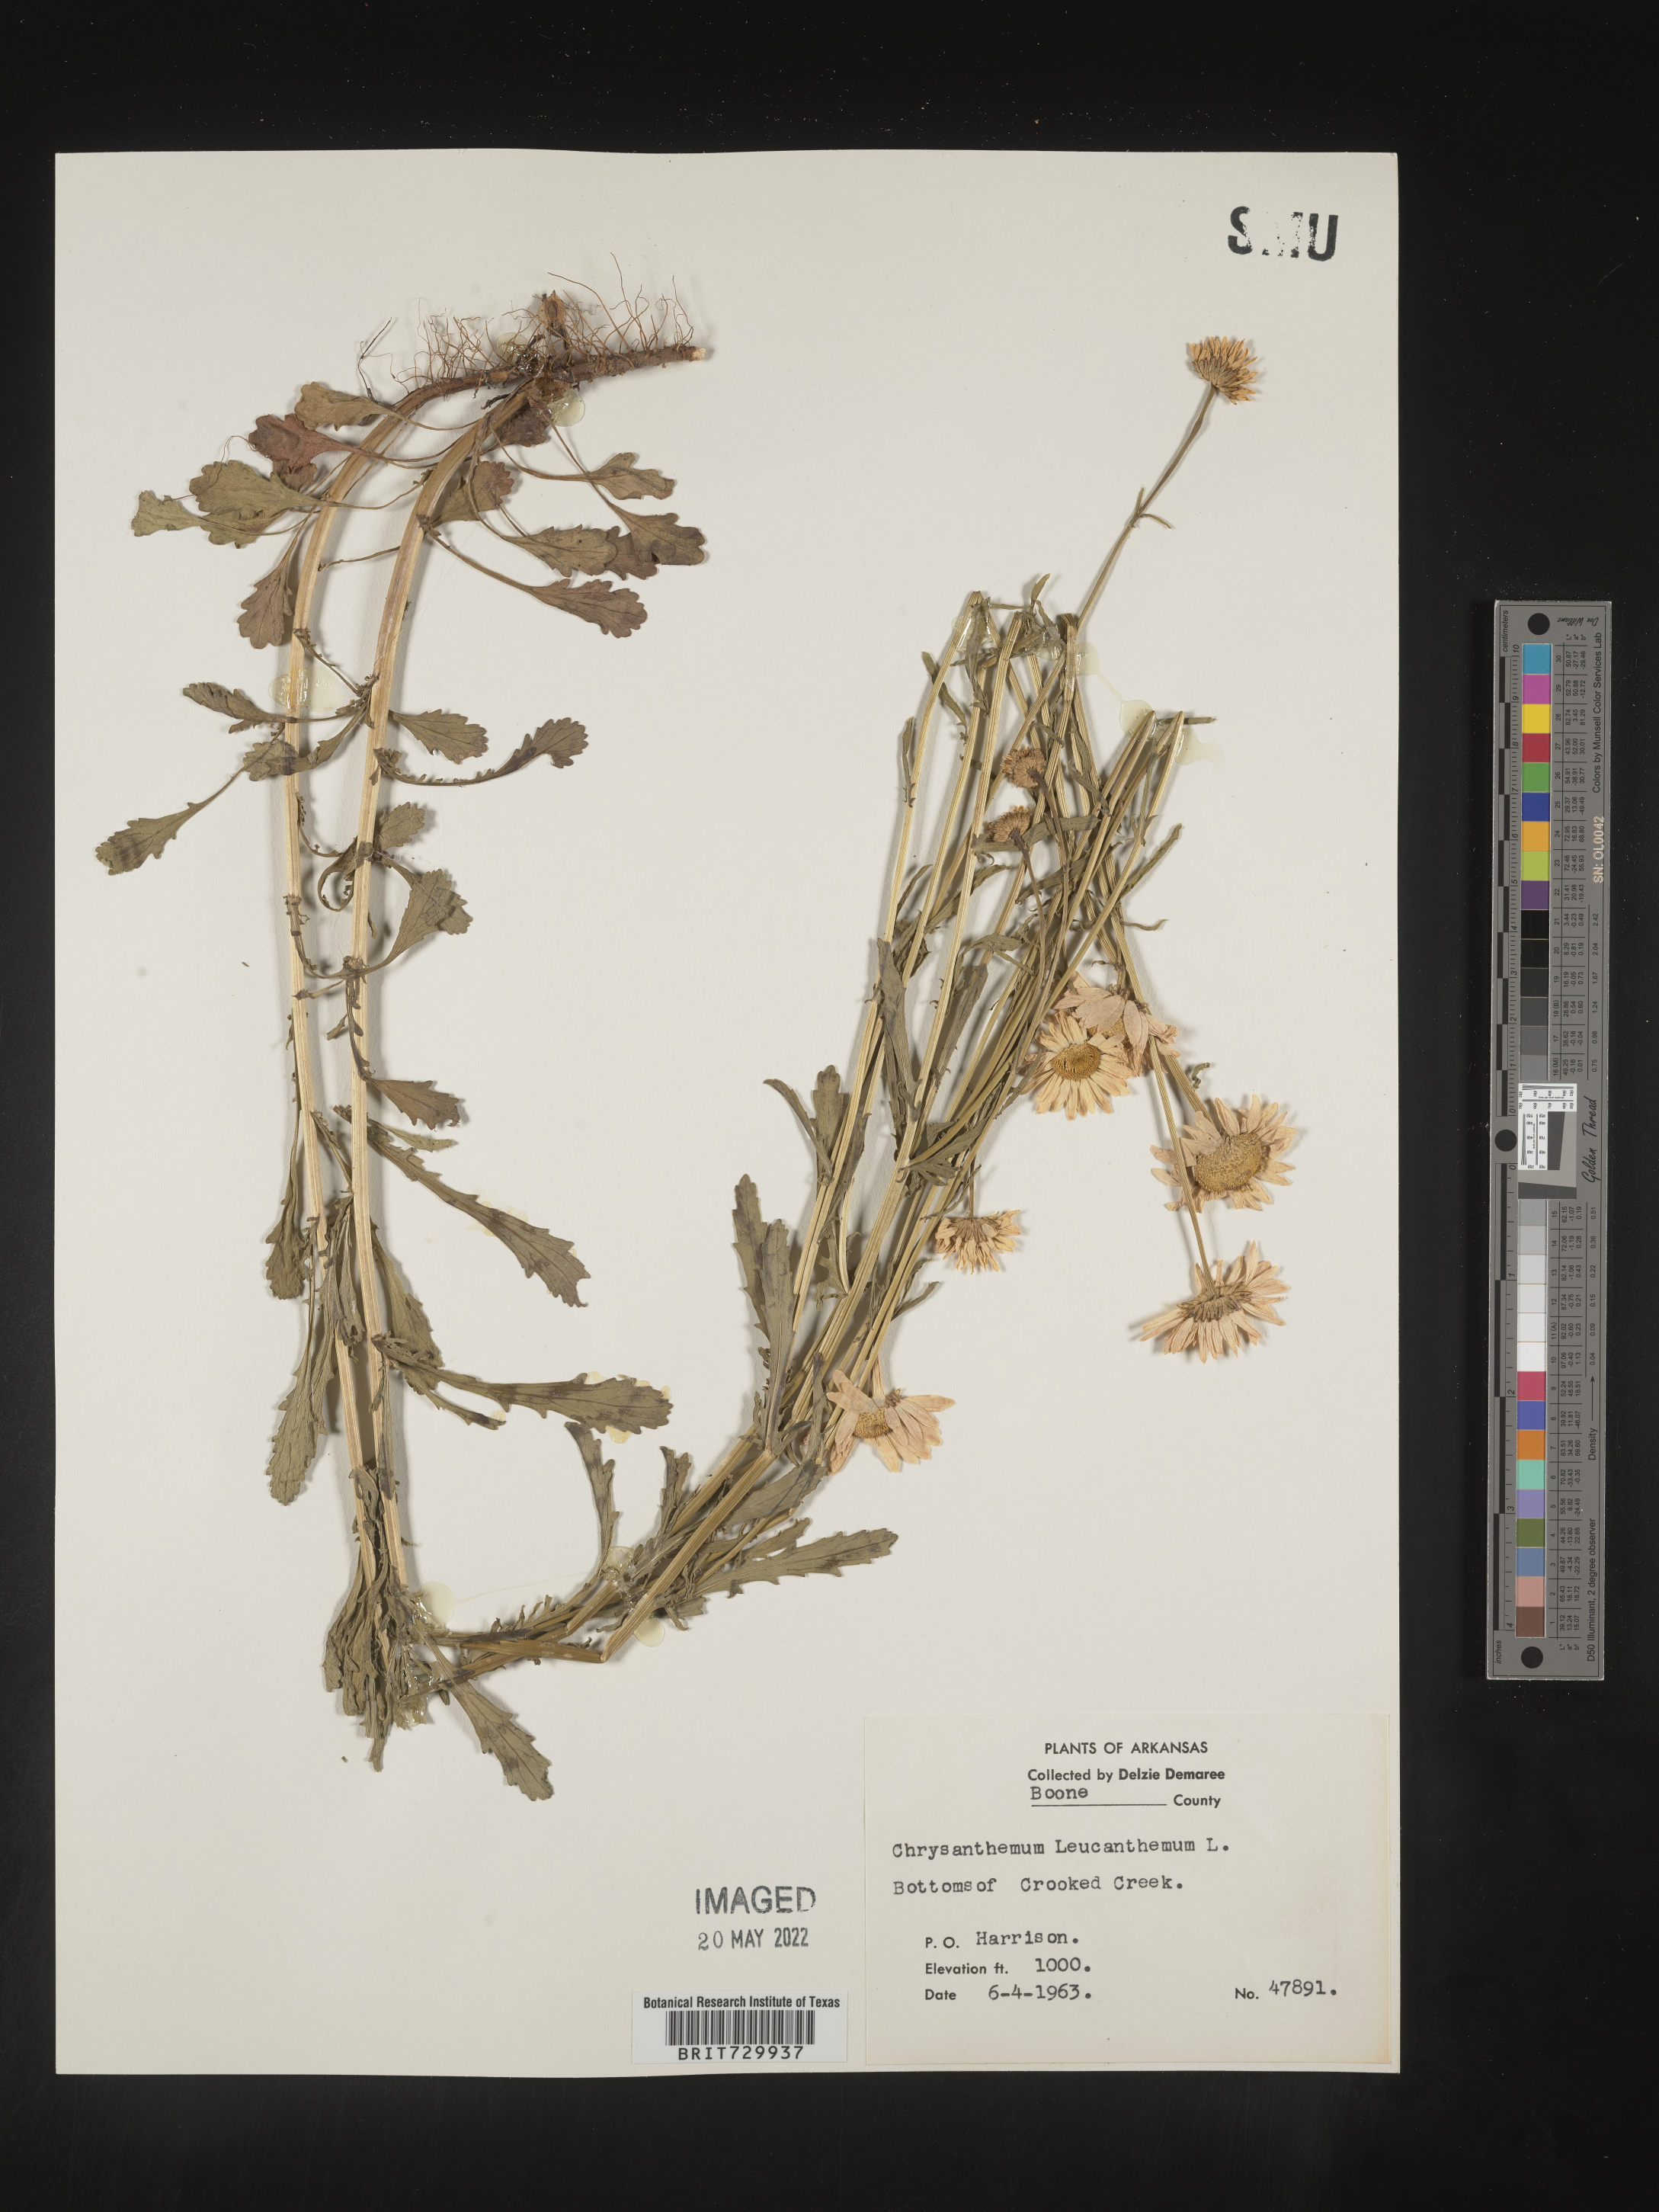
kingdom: Plantae
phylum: Tracheophyta
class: Magnoliopsida
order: Asterales
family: Asteraceae
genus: Leucanthemum
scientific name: Leucanthemum vulgare
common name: Oxeye daisy
